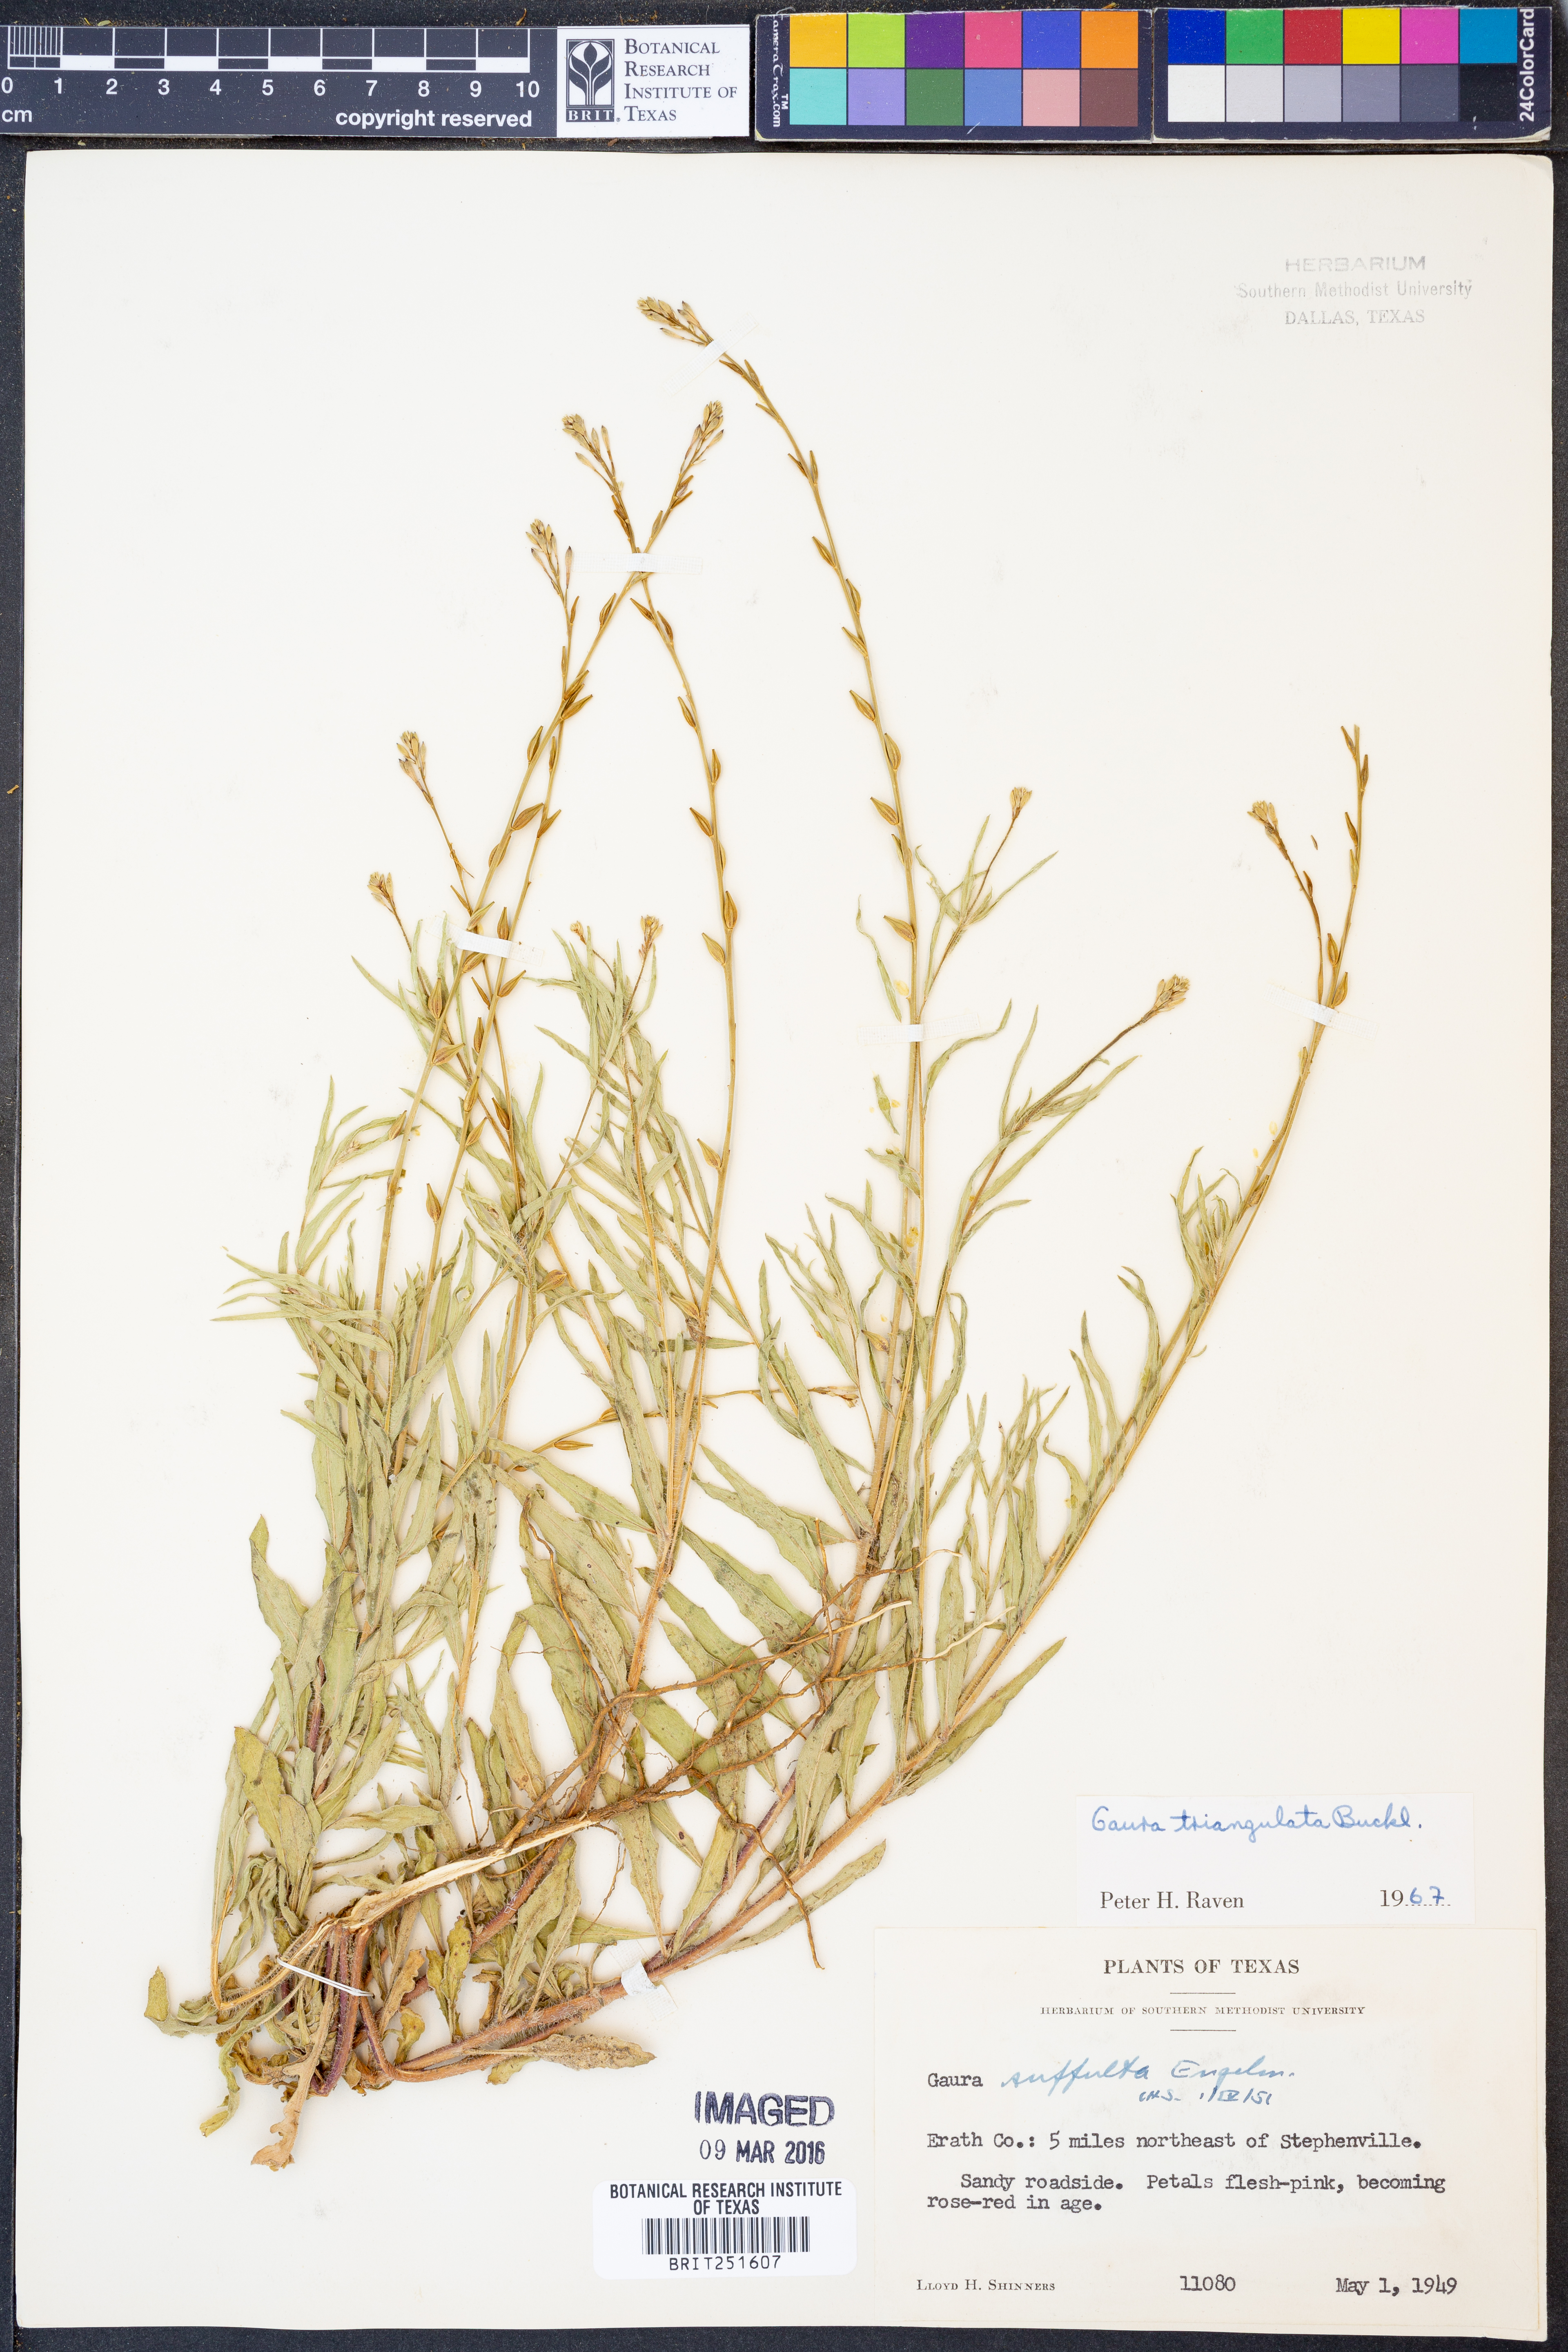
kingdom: Plantae
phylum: Tracheophyta
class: Magnoliopsida
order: Myrtales
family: Onagraceae
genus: Oenothera
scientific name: Oenothera triangulata
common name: Prairie beeblossom
